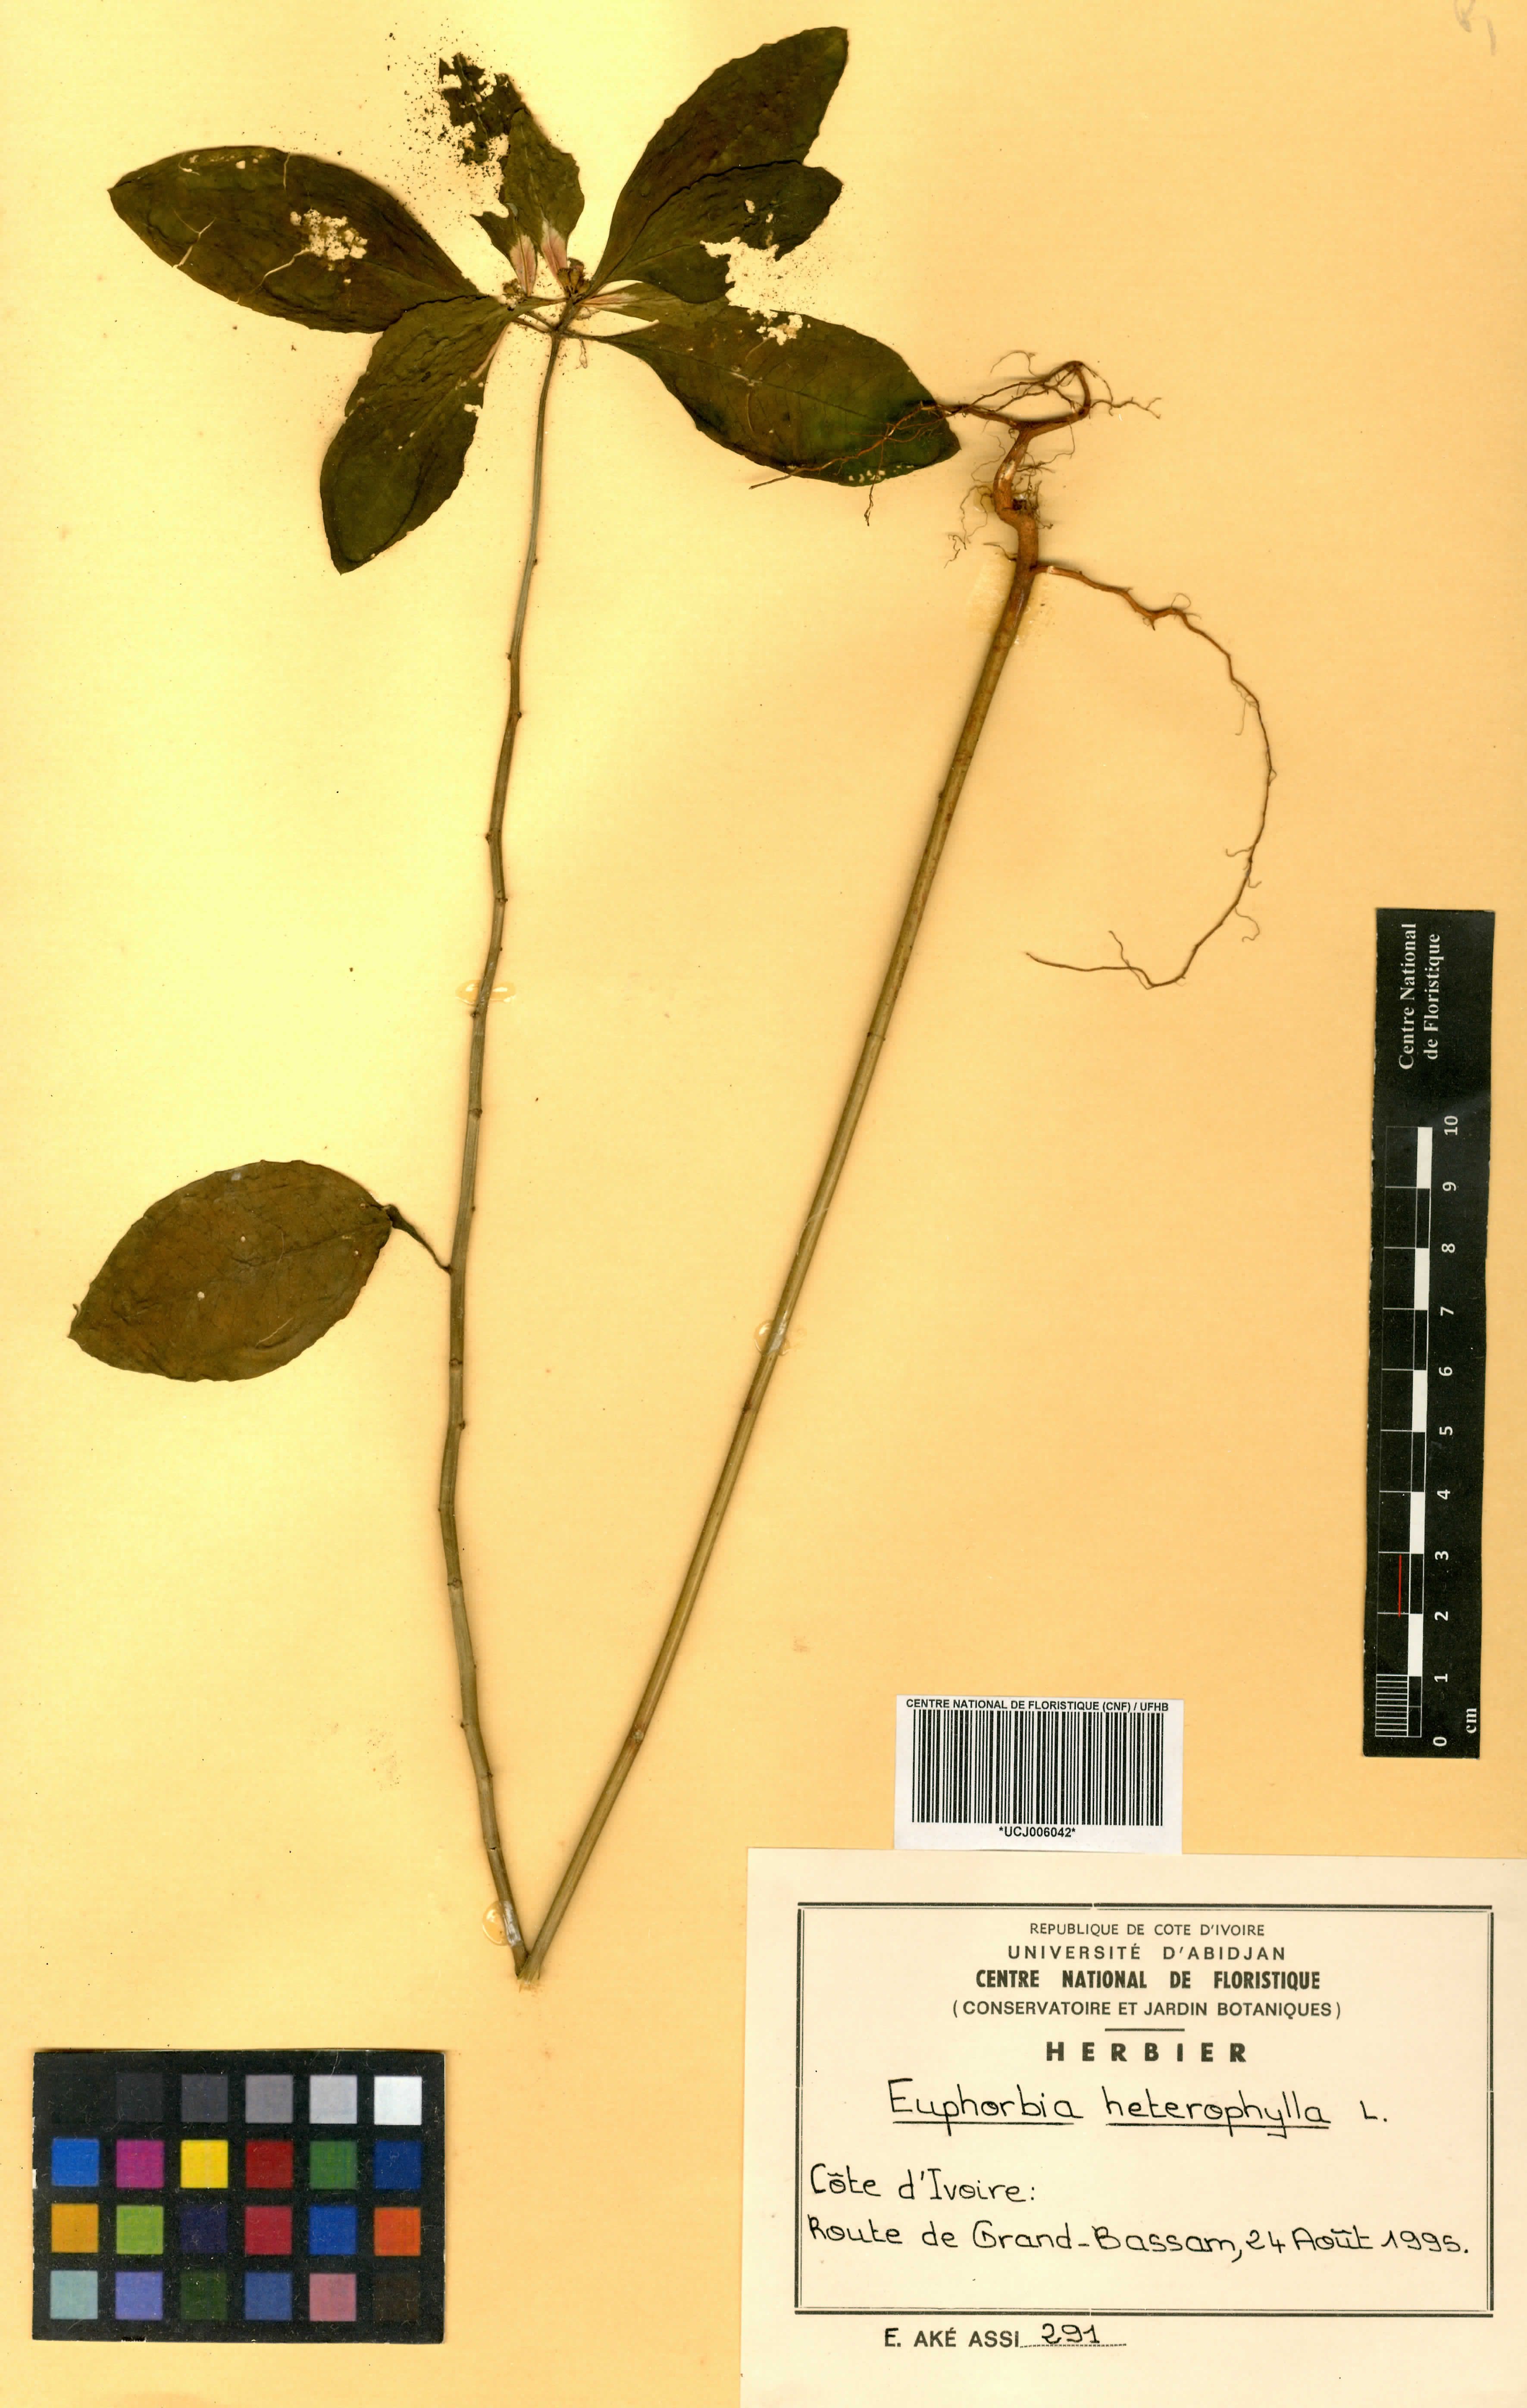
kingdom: Plantae
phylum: Tracheophyta
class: Magnoliopsida
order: Malpighiales
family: Euphorbiaceae
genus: Euphorbia
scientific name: Euphorbia heterophylla
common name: Mexican fireplant
